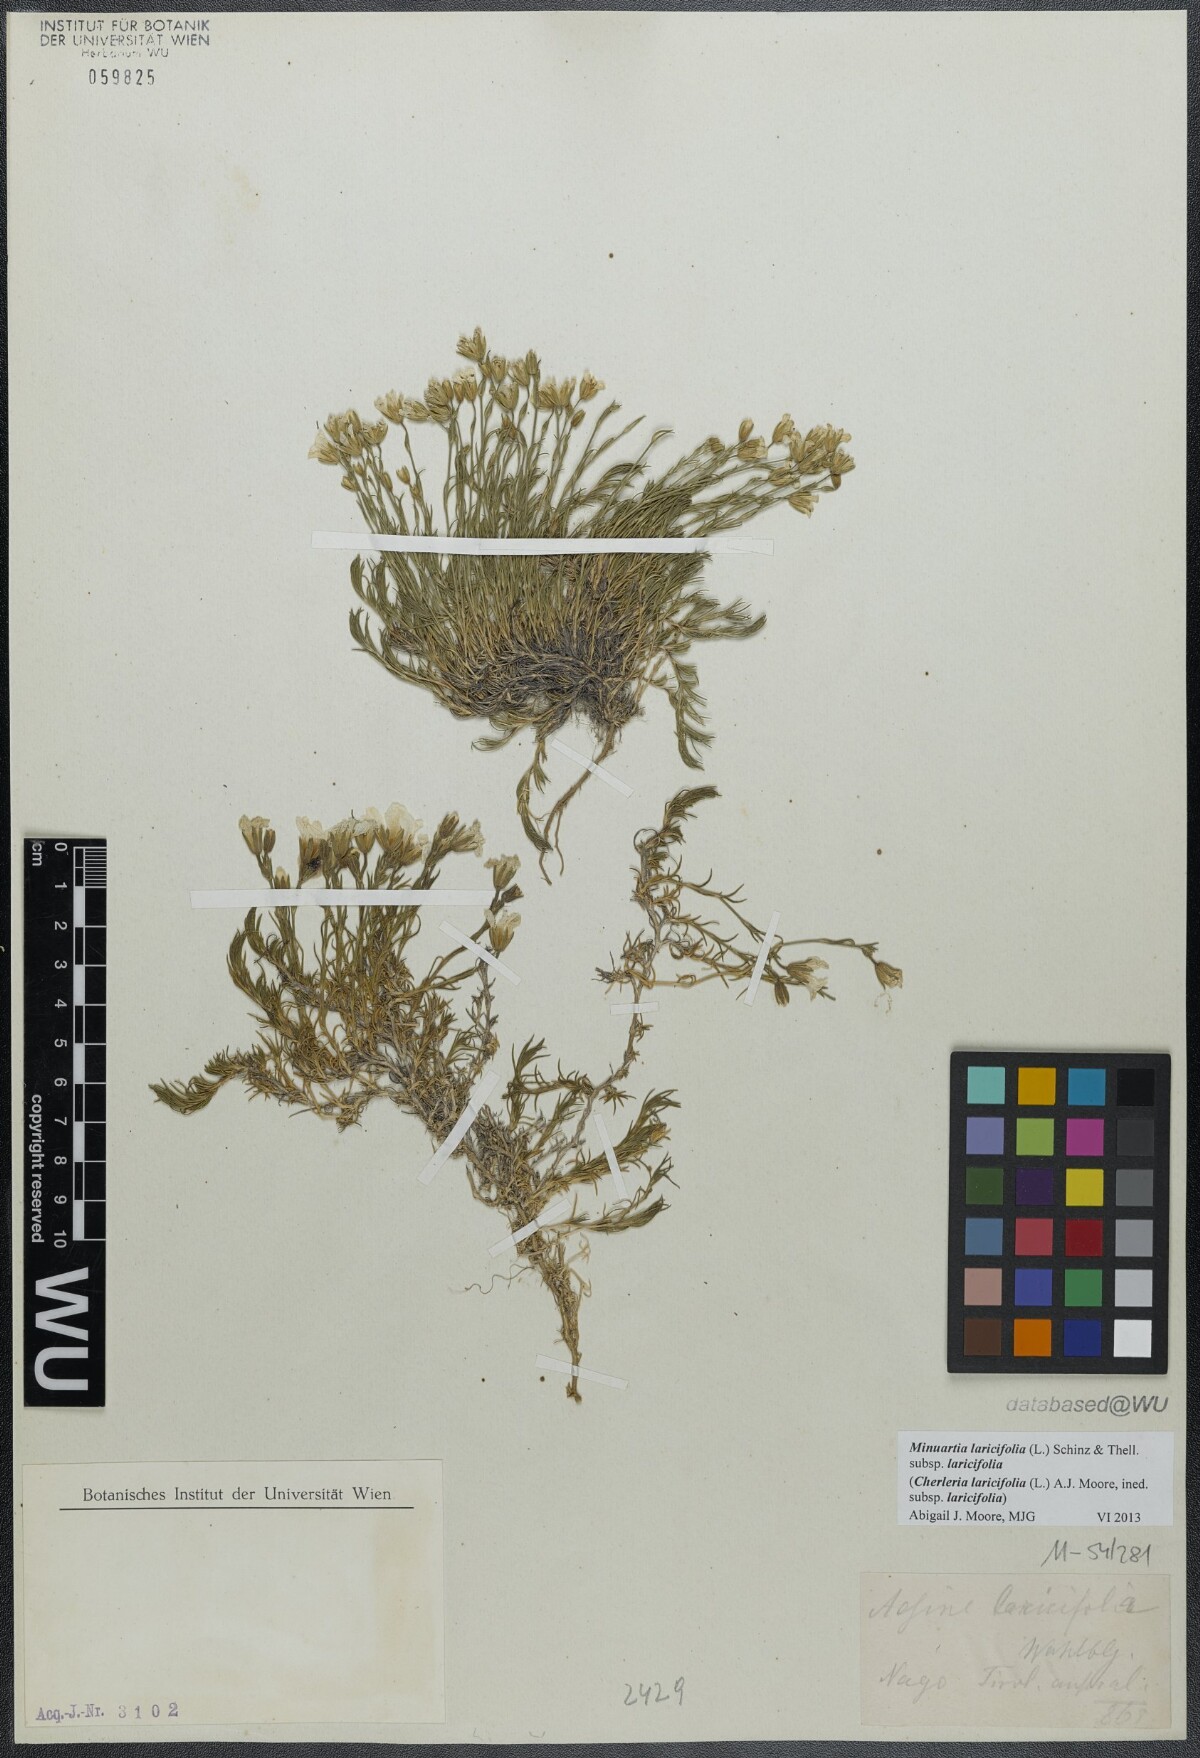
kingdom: Plantae
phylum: Tracheophyta
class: Magnoliopsida
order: Caryophyllales
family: Caryophyllaceae
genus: Cherleria
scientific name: Cherleria laricifolia
